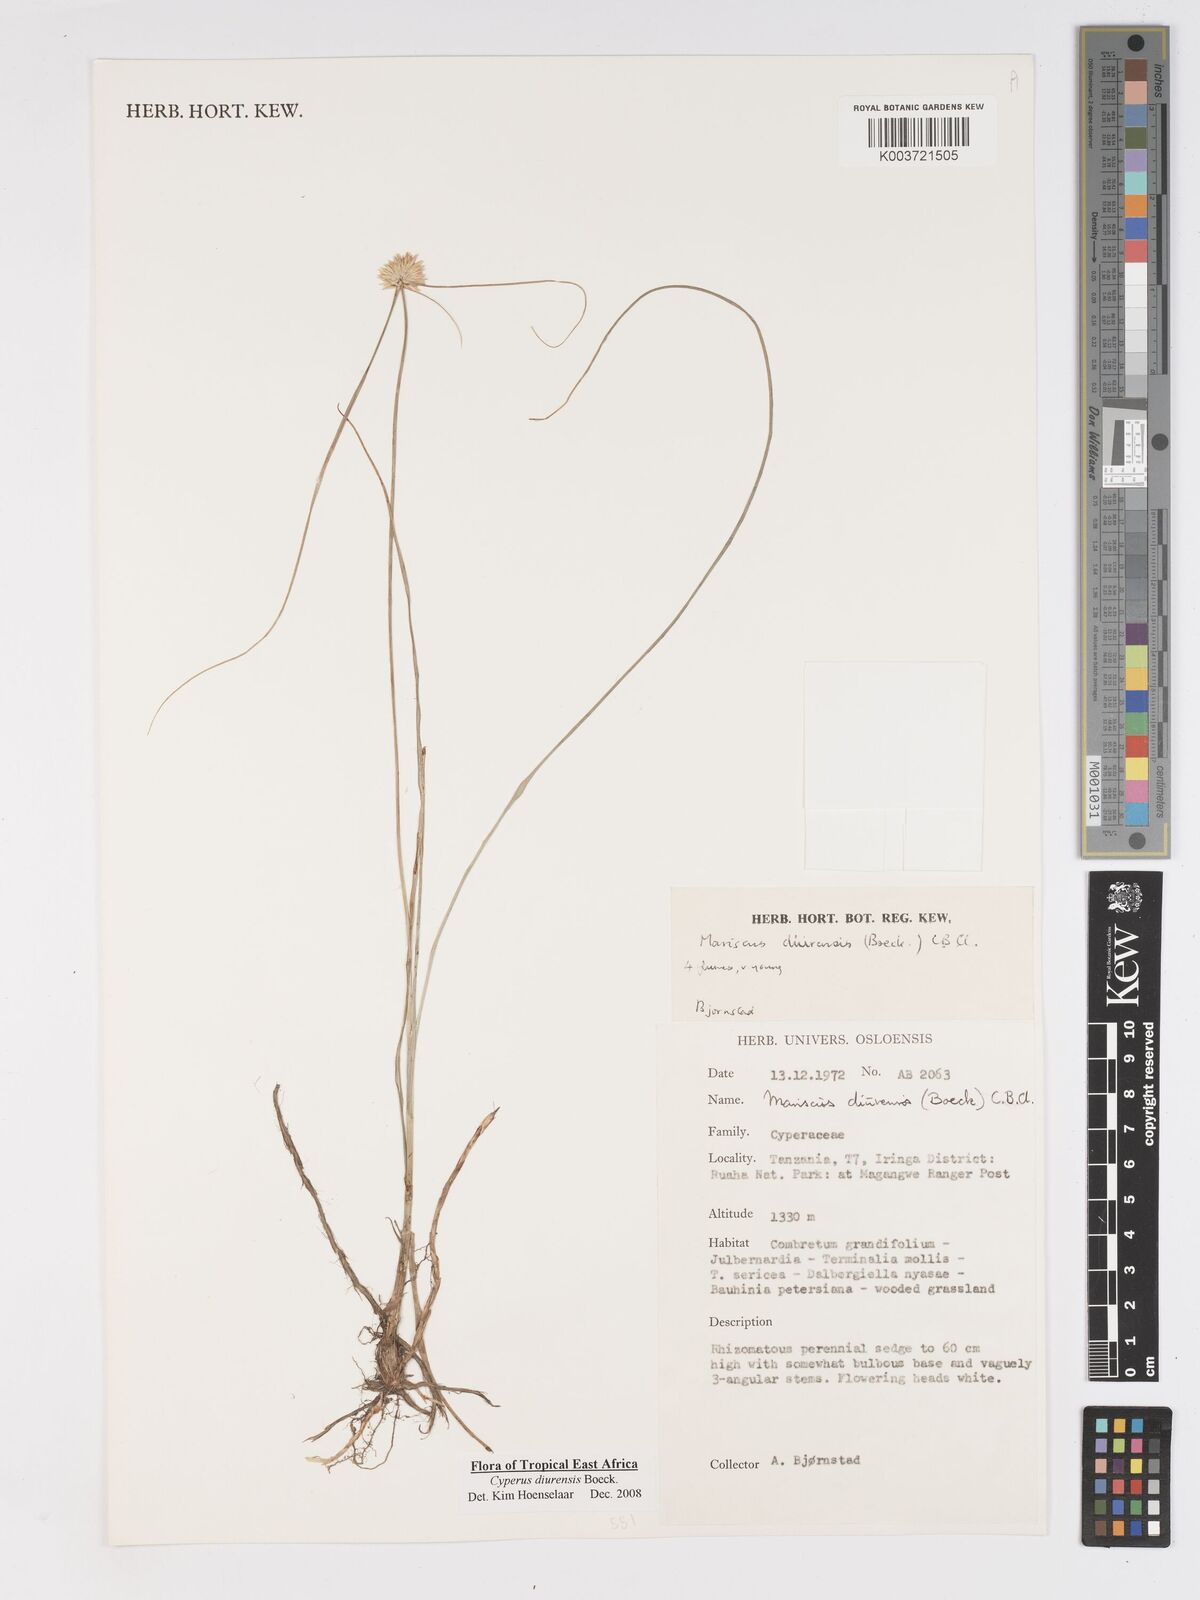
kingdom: Plantae
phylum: Tracheophyta
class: Liliopsida
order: Poales
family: Cyperaceae
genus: Cyperus
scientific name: Cyperus diurensis
